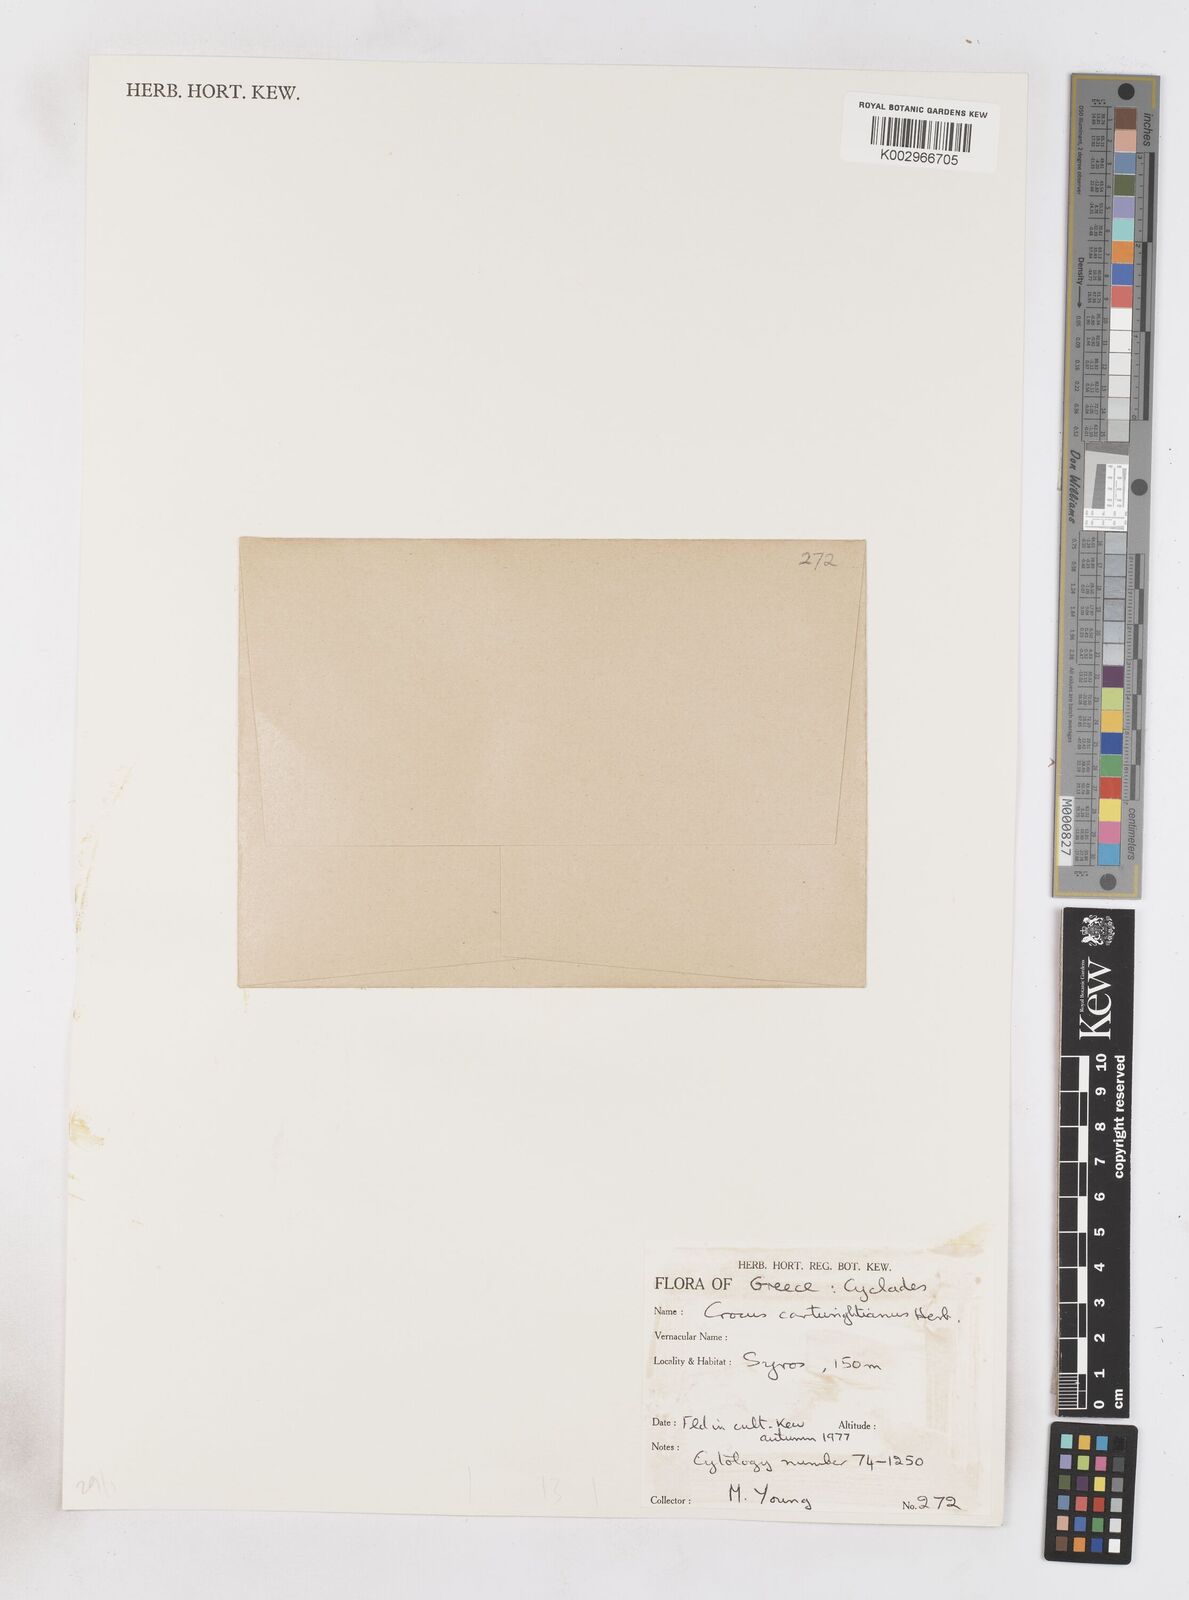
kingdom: Plantae
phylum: Tracheophyta
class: Liliopsida
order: Asparagales
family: Iridaceae
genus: Crocus
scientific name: Crocus cartwrightianus
